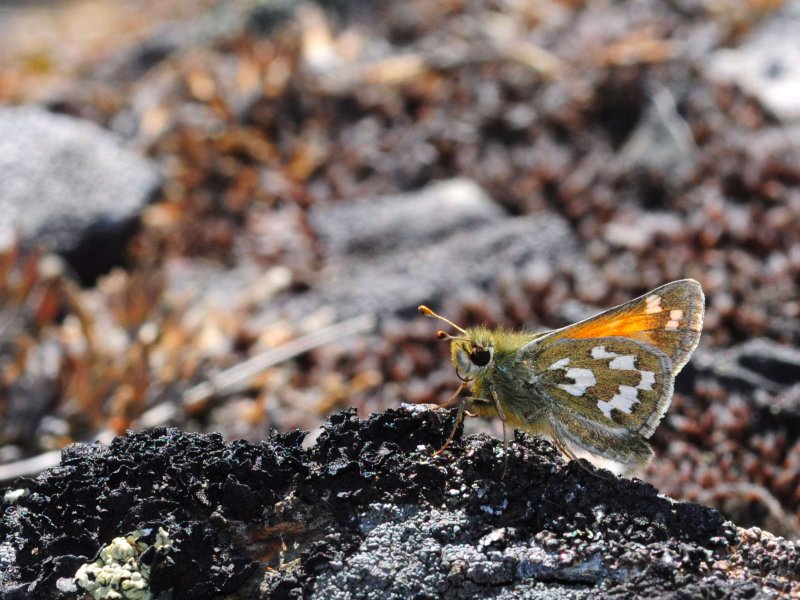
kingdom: Animalia
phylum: Arthropoda
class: Insecta
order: Lepidoptera
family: Hesperiidae
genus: Hesperia
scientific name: Hesperia nevada
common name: Nevada Skipper
